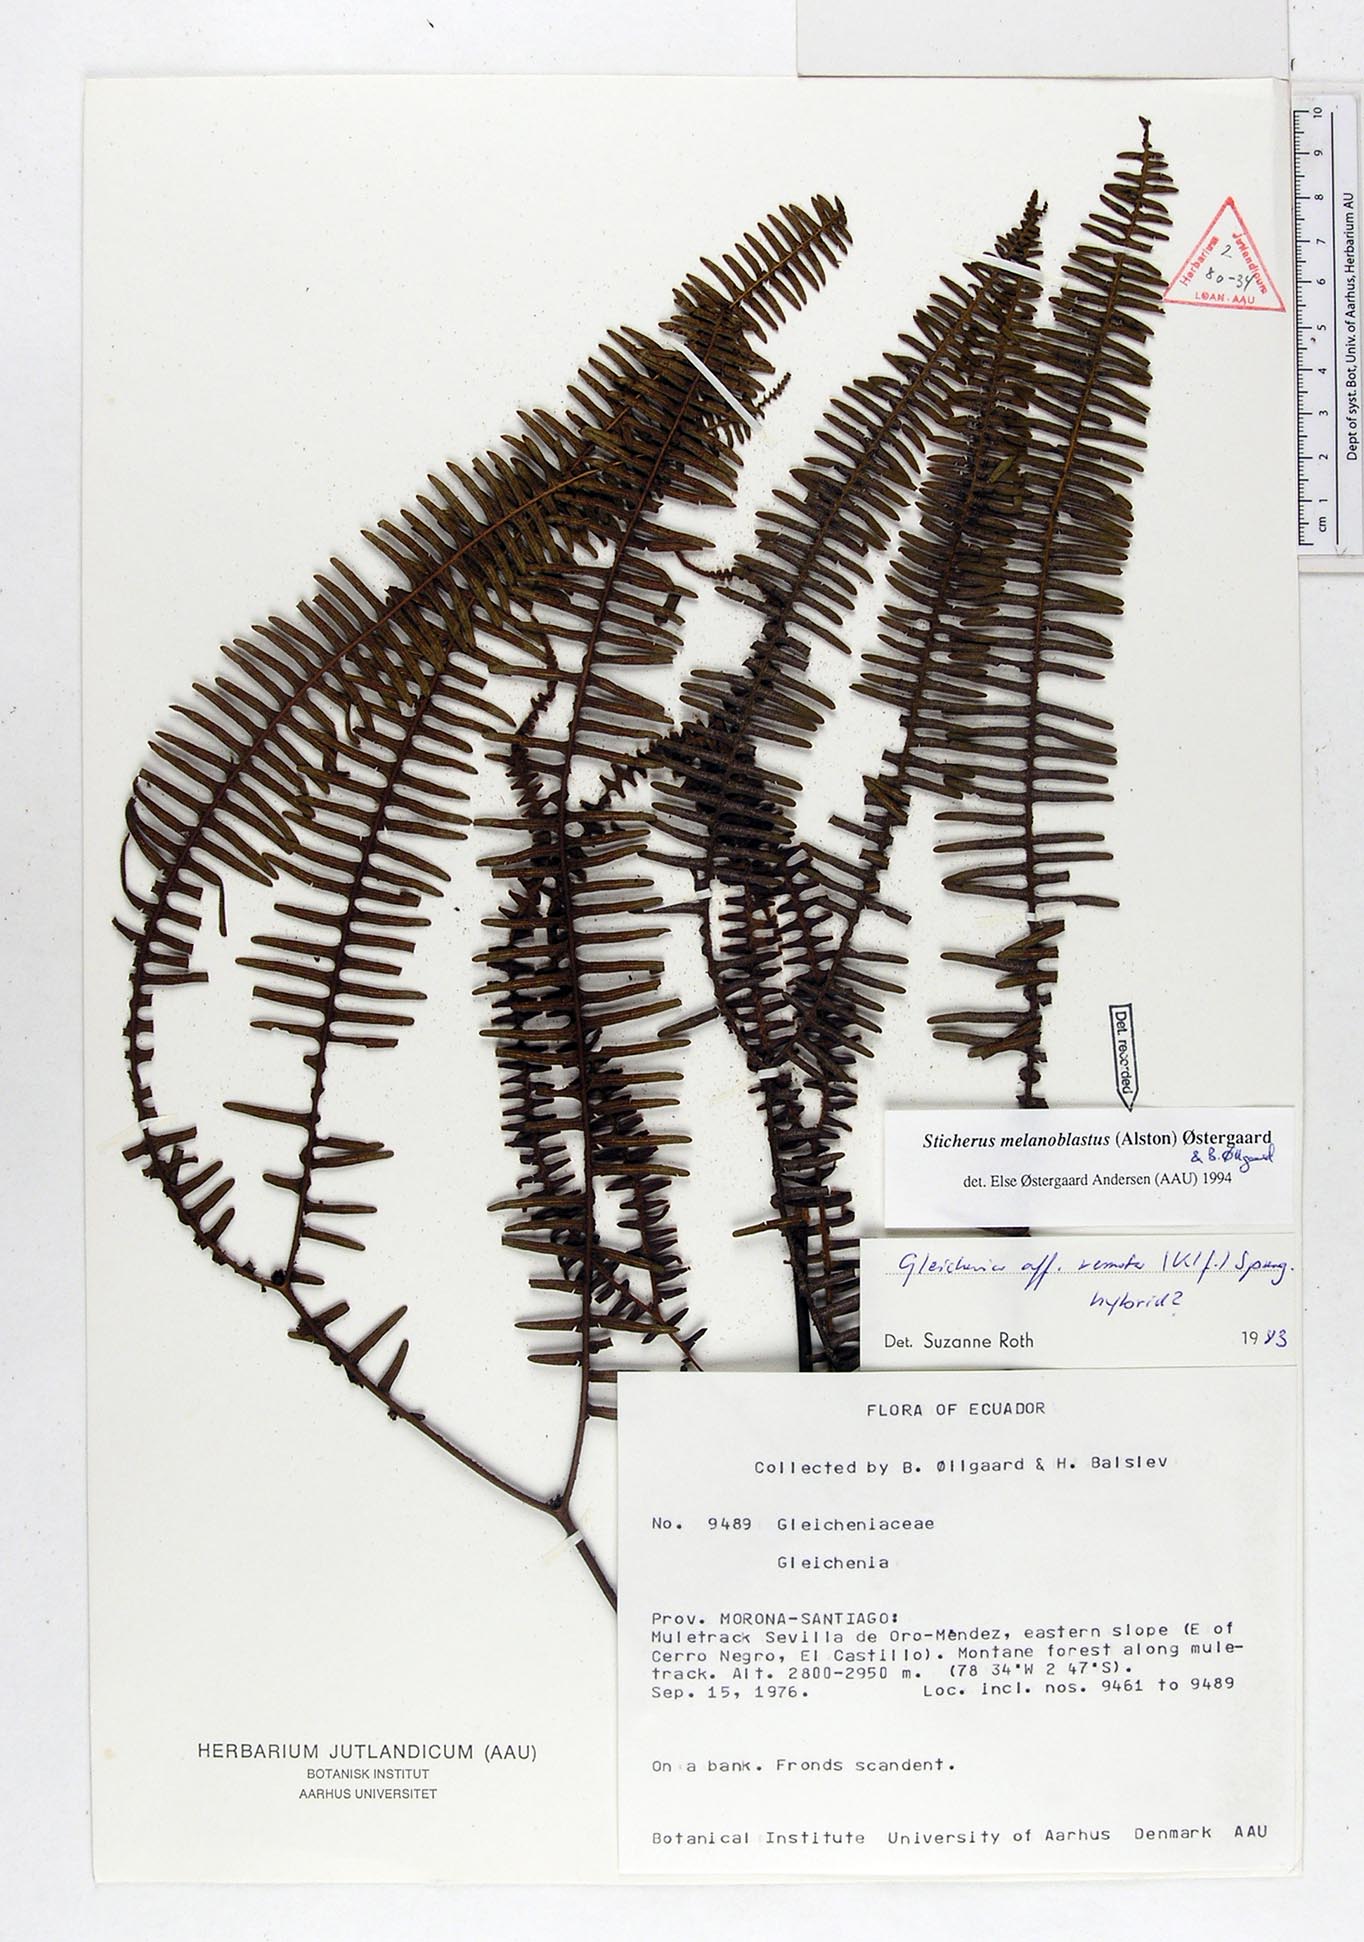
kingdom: Plantae
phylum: Tracheophyta
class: Polypodiopsida
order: Gleicheniales
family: Gleicheniaceae
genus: Sticherus
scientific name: Sticherus melanoblastus
